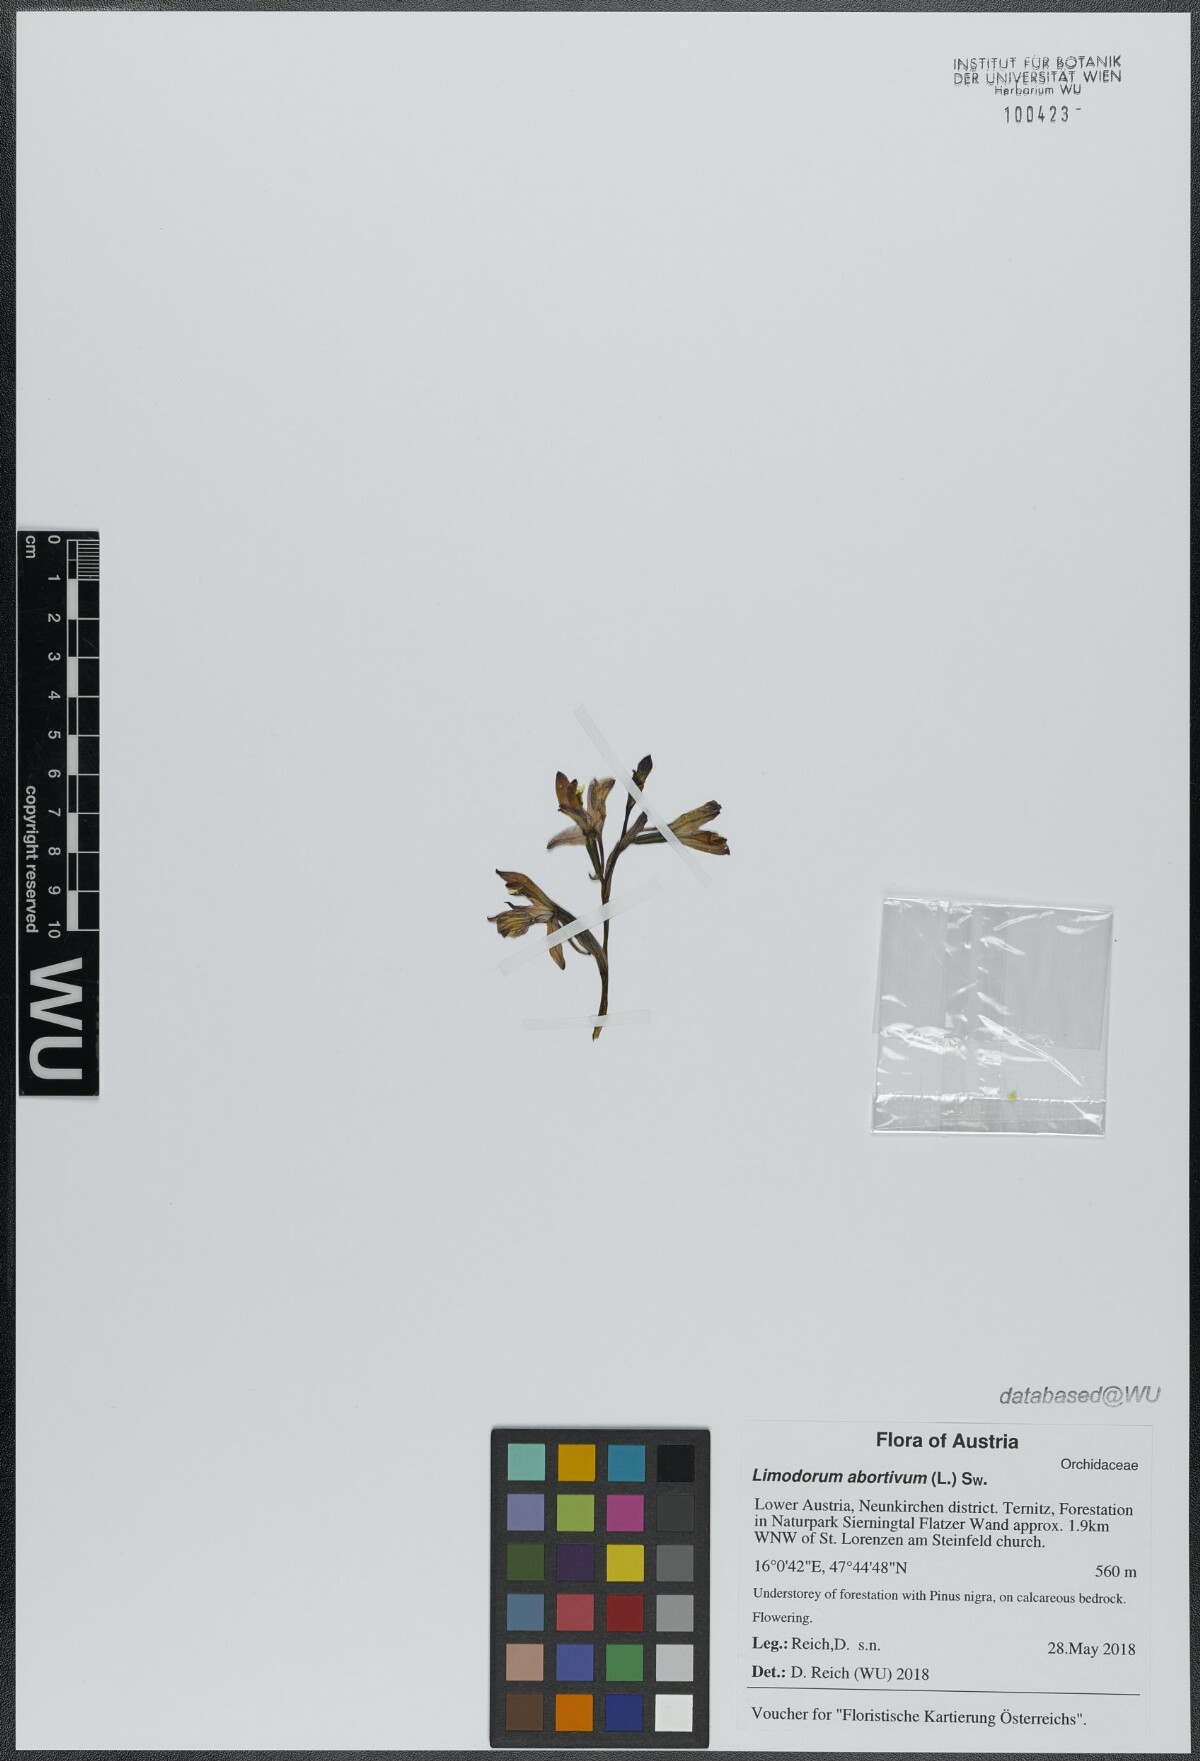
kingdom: Plantae
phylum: Tracheophyta
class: Liliopsida
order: Asparagales
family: Orchidaceae
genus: Limodorum
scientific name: Limodorum abortivum
